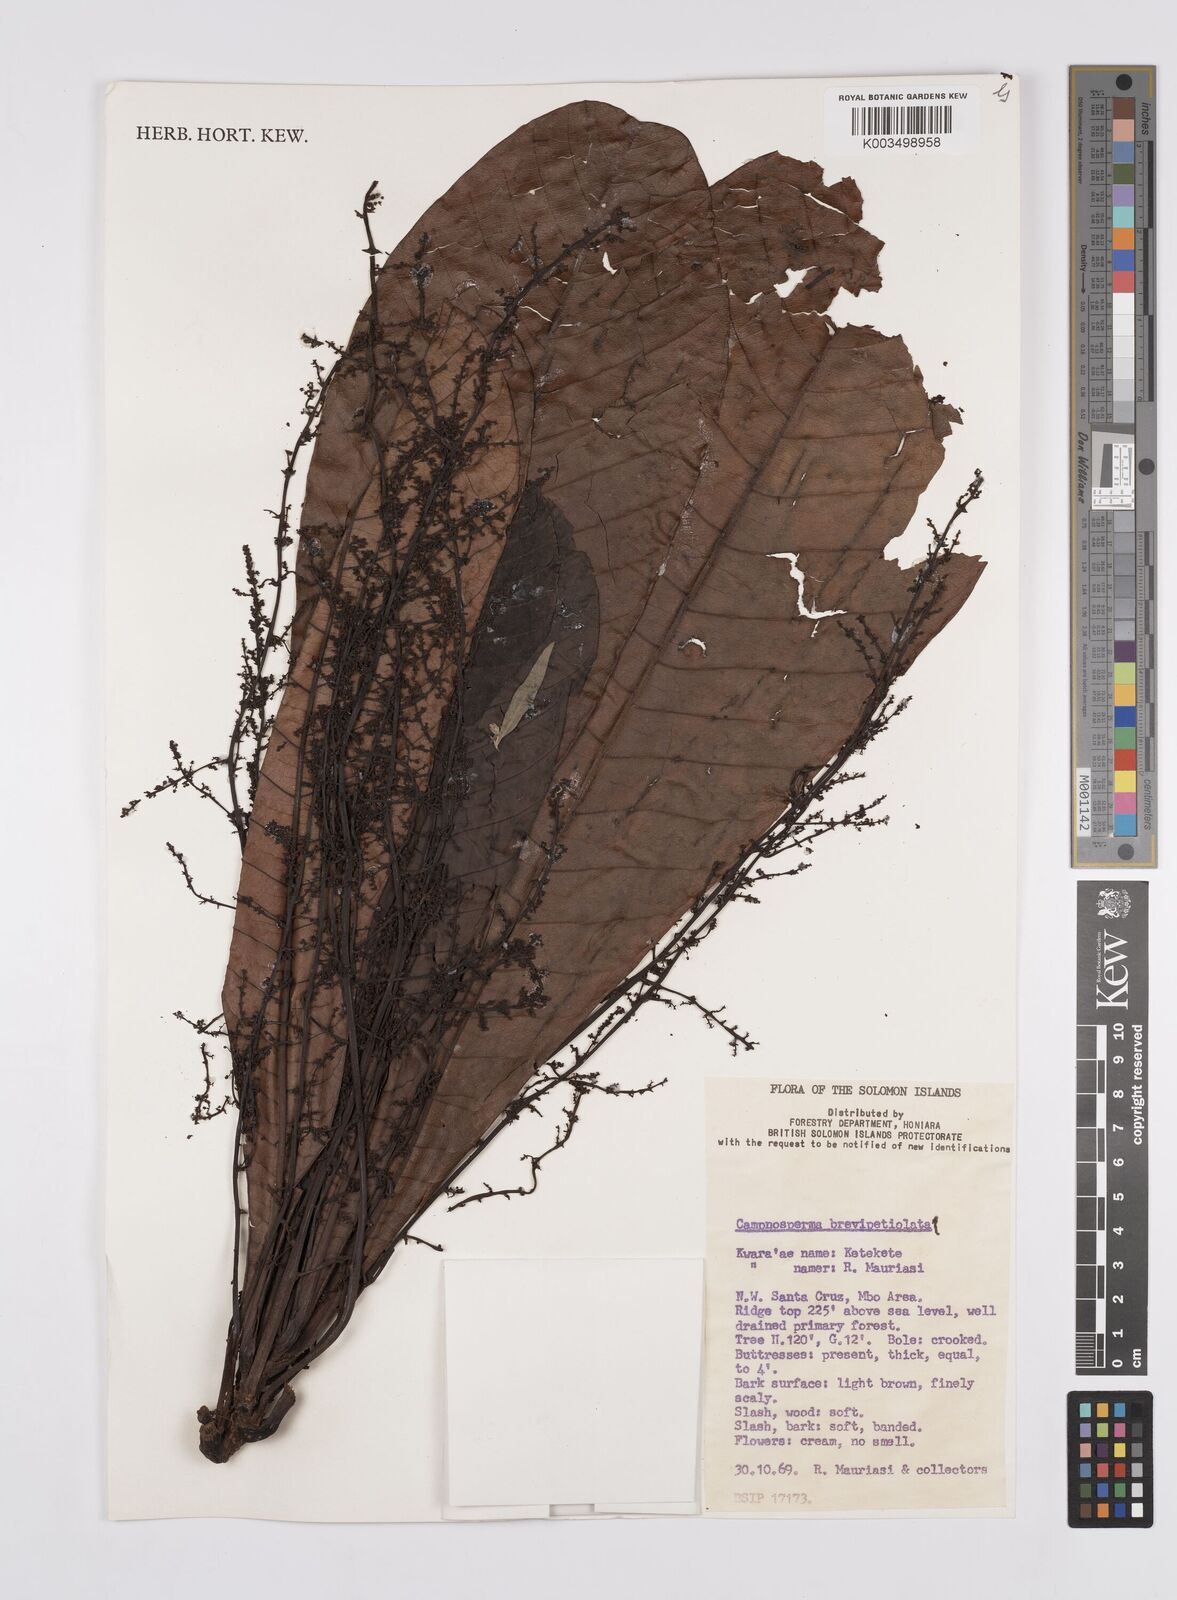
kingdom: Plantae
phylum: Tracheophyta
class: Magnoliopsida
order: Sapindales
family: Anacardiaceae
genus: Campnosperma
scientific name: Campnosperma brevipetiolatum
